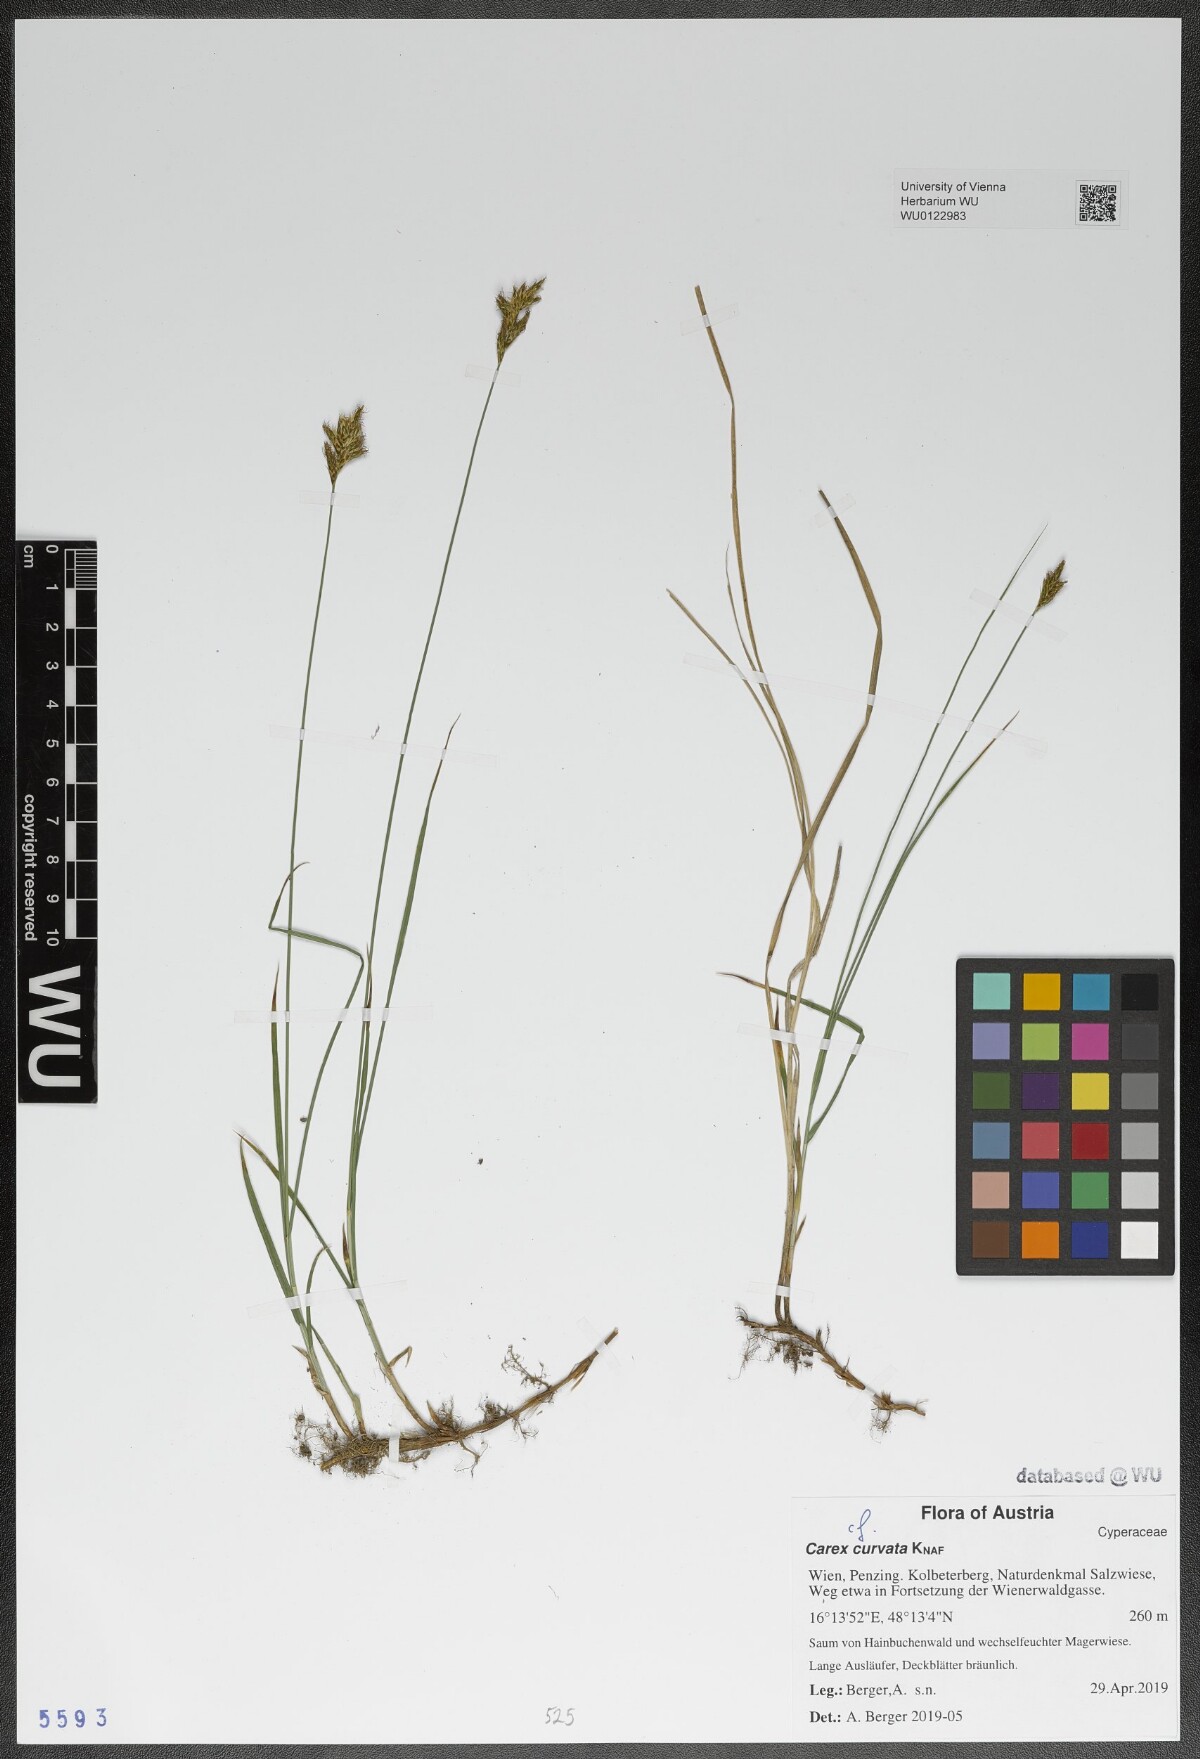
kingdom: Plantae
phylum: Tracheophyta
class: Liliopsida
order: Poales
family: Cyperaceae
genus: Carex
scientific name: Carex curvata
